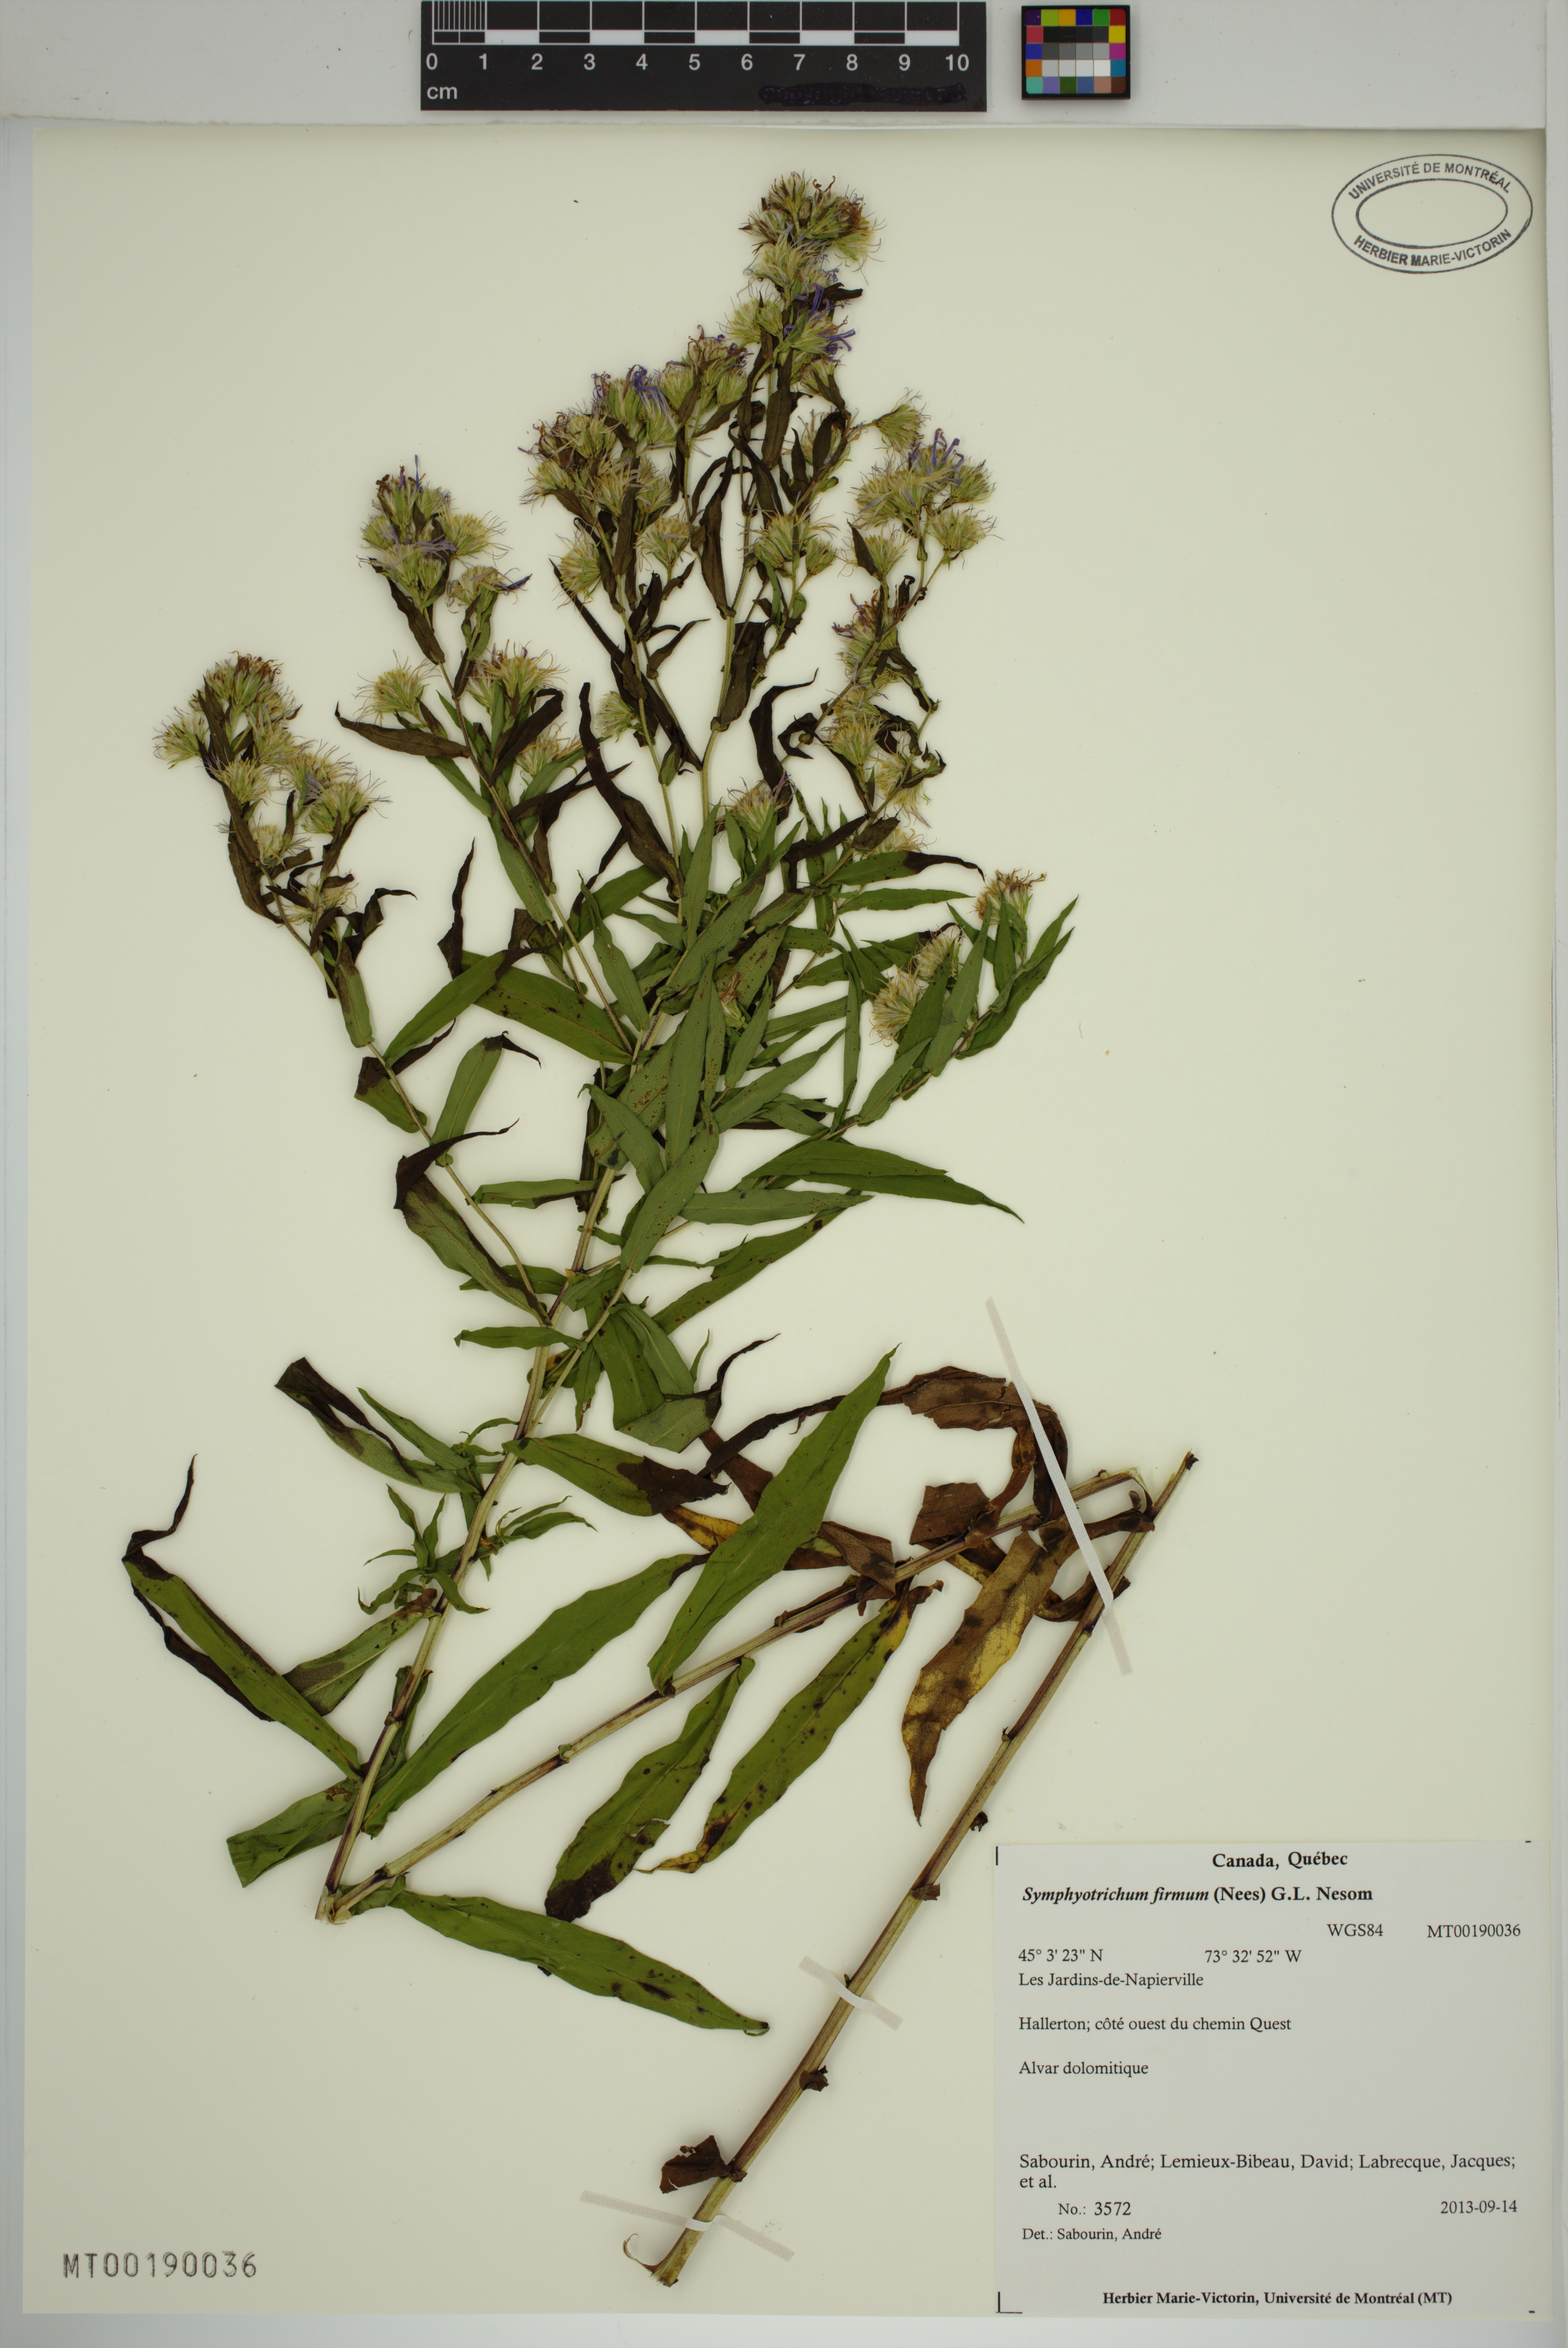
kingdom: Plantae
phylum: Tracheophyta
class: Magnoliopsida
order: Asterales
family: Asteraceae
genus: Symphyotrichum
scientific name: Symphyotrichum firmum
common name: Shining aster
